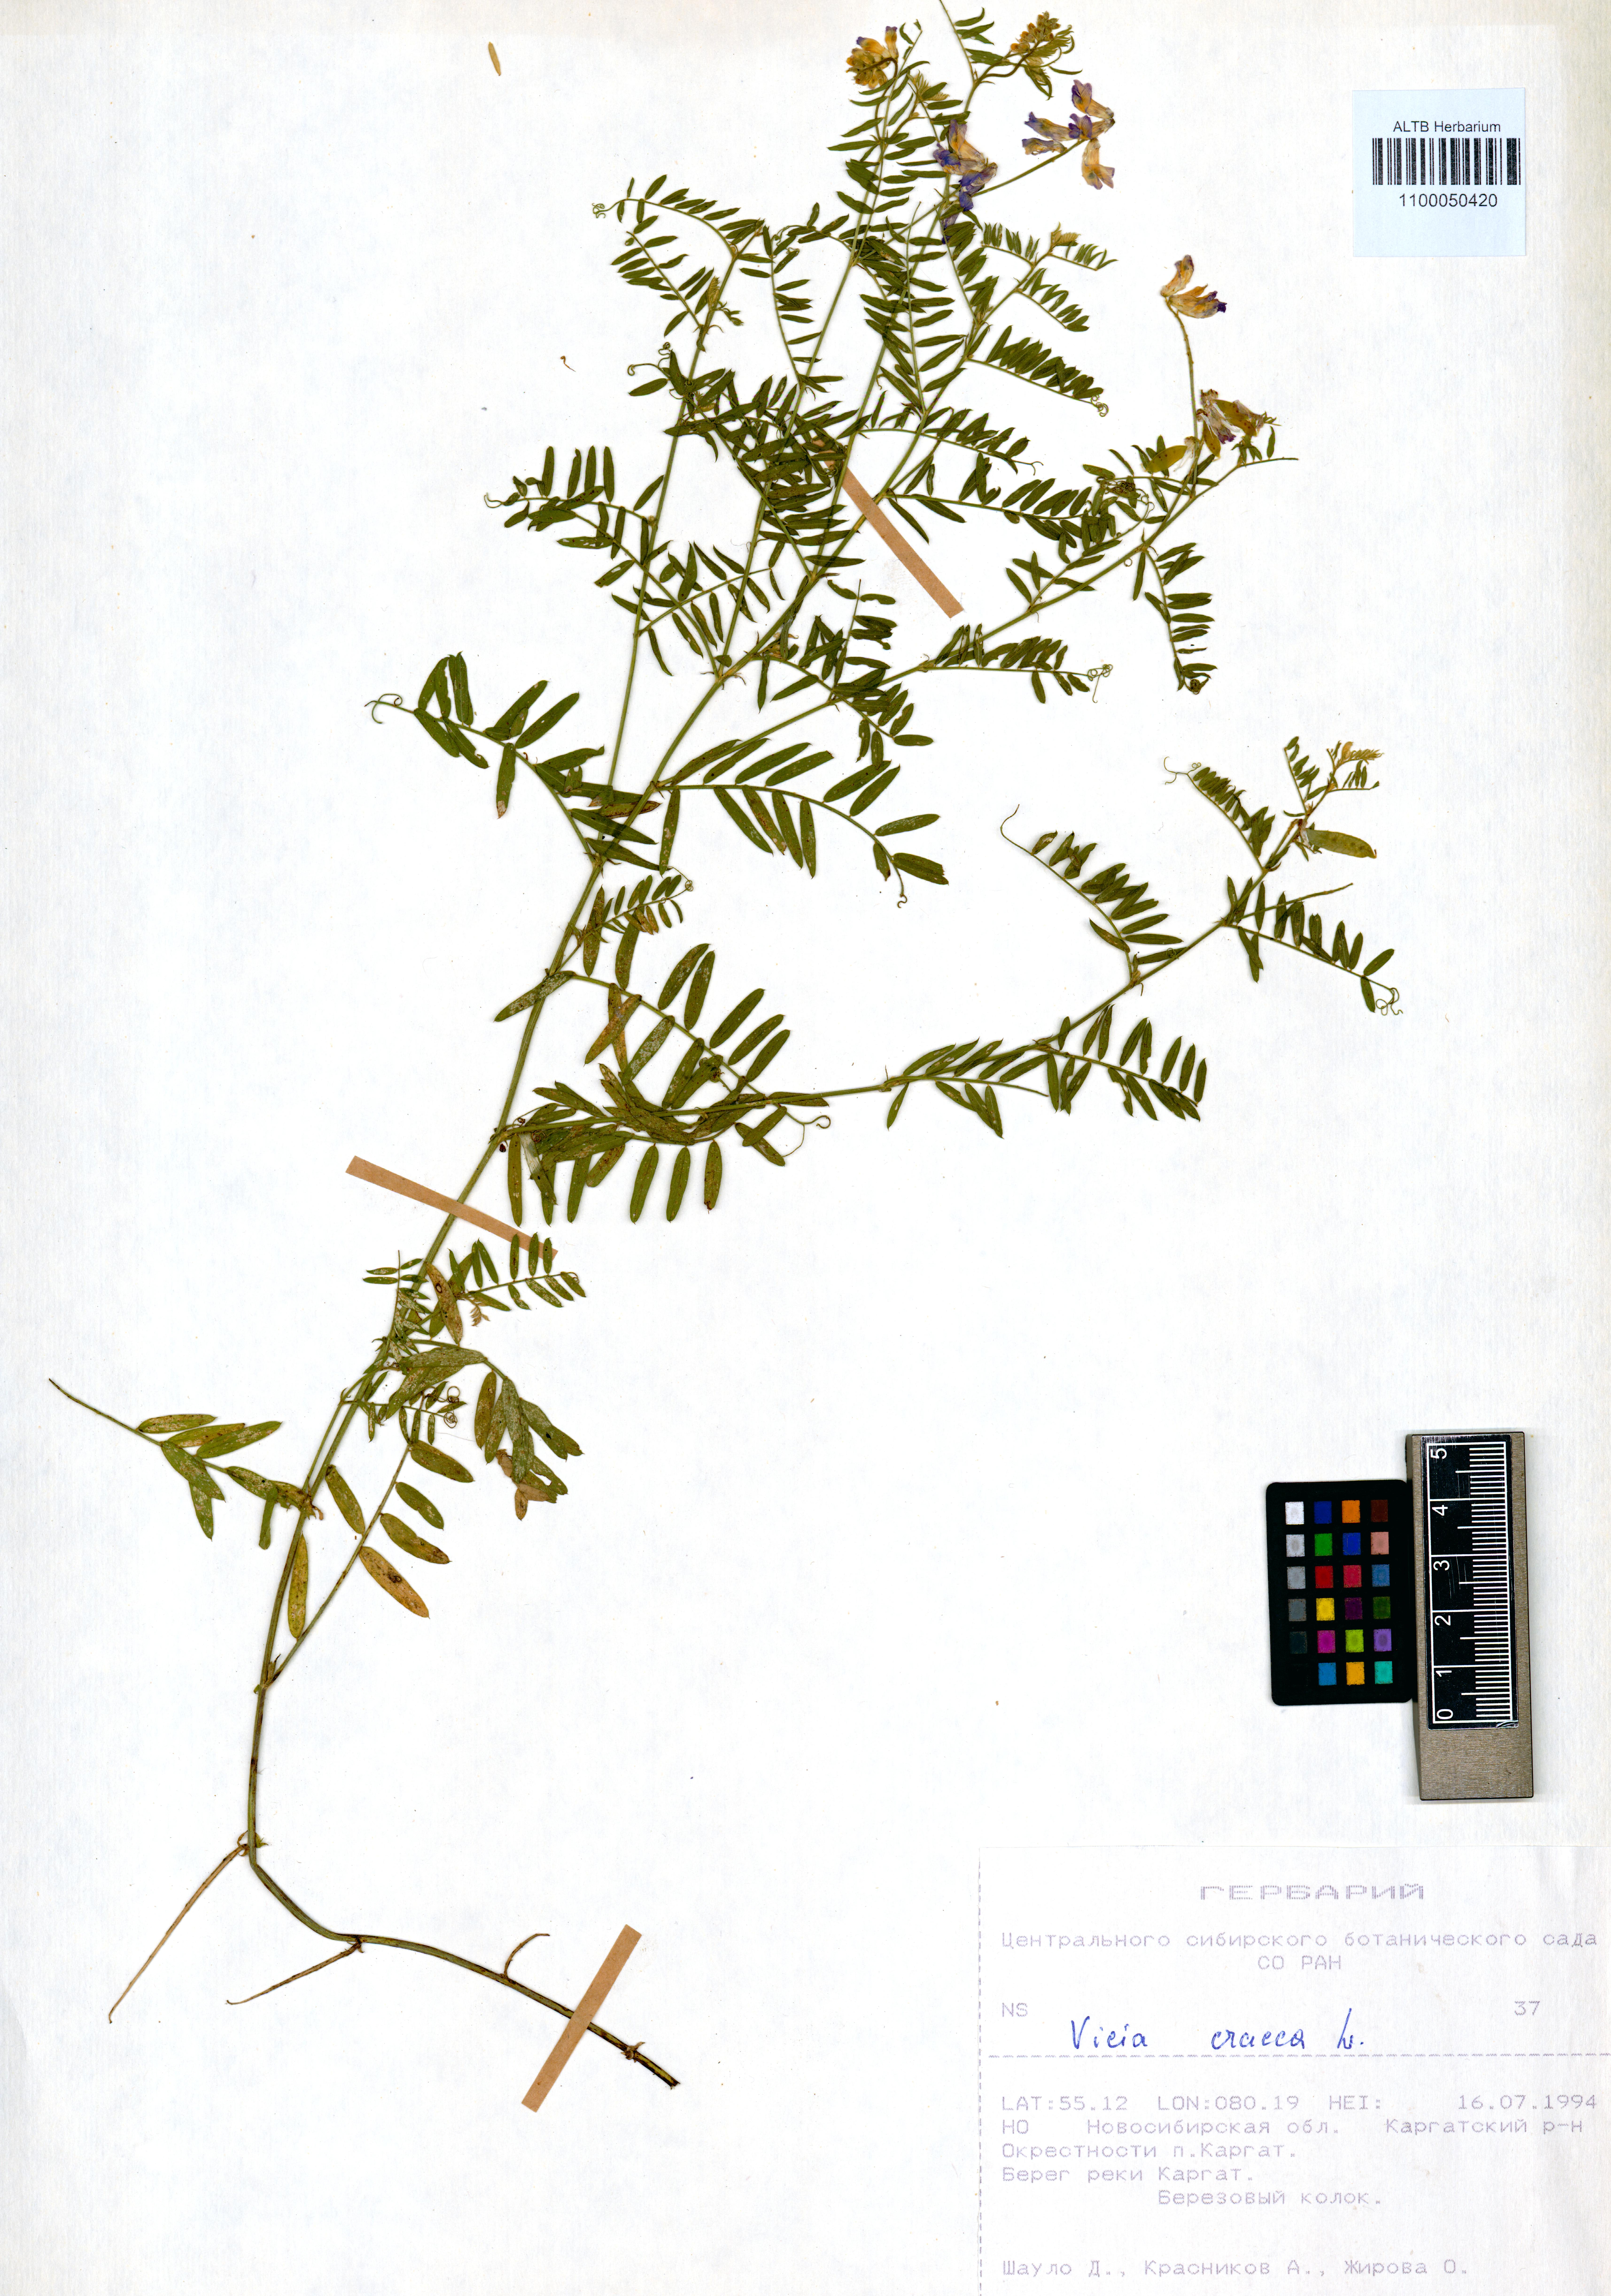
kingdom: Plantae
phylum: Tracheophyta
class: Magnoliopsida
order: Fabales
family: Fabaceae
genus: Vicia
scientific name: Vicia cracca
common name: Bird vetch
